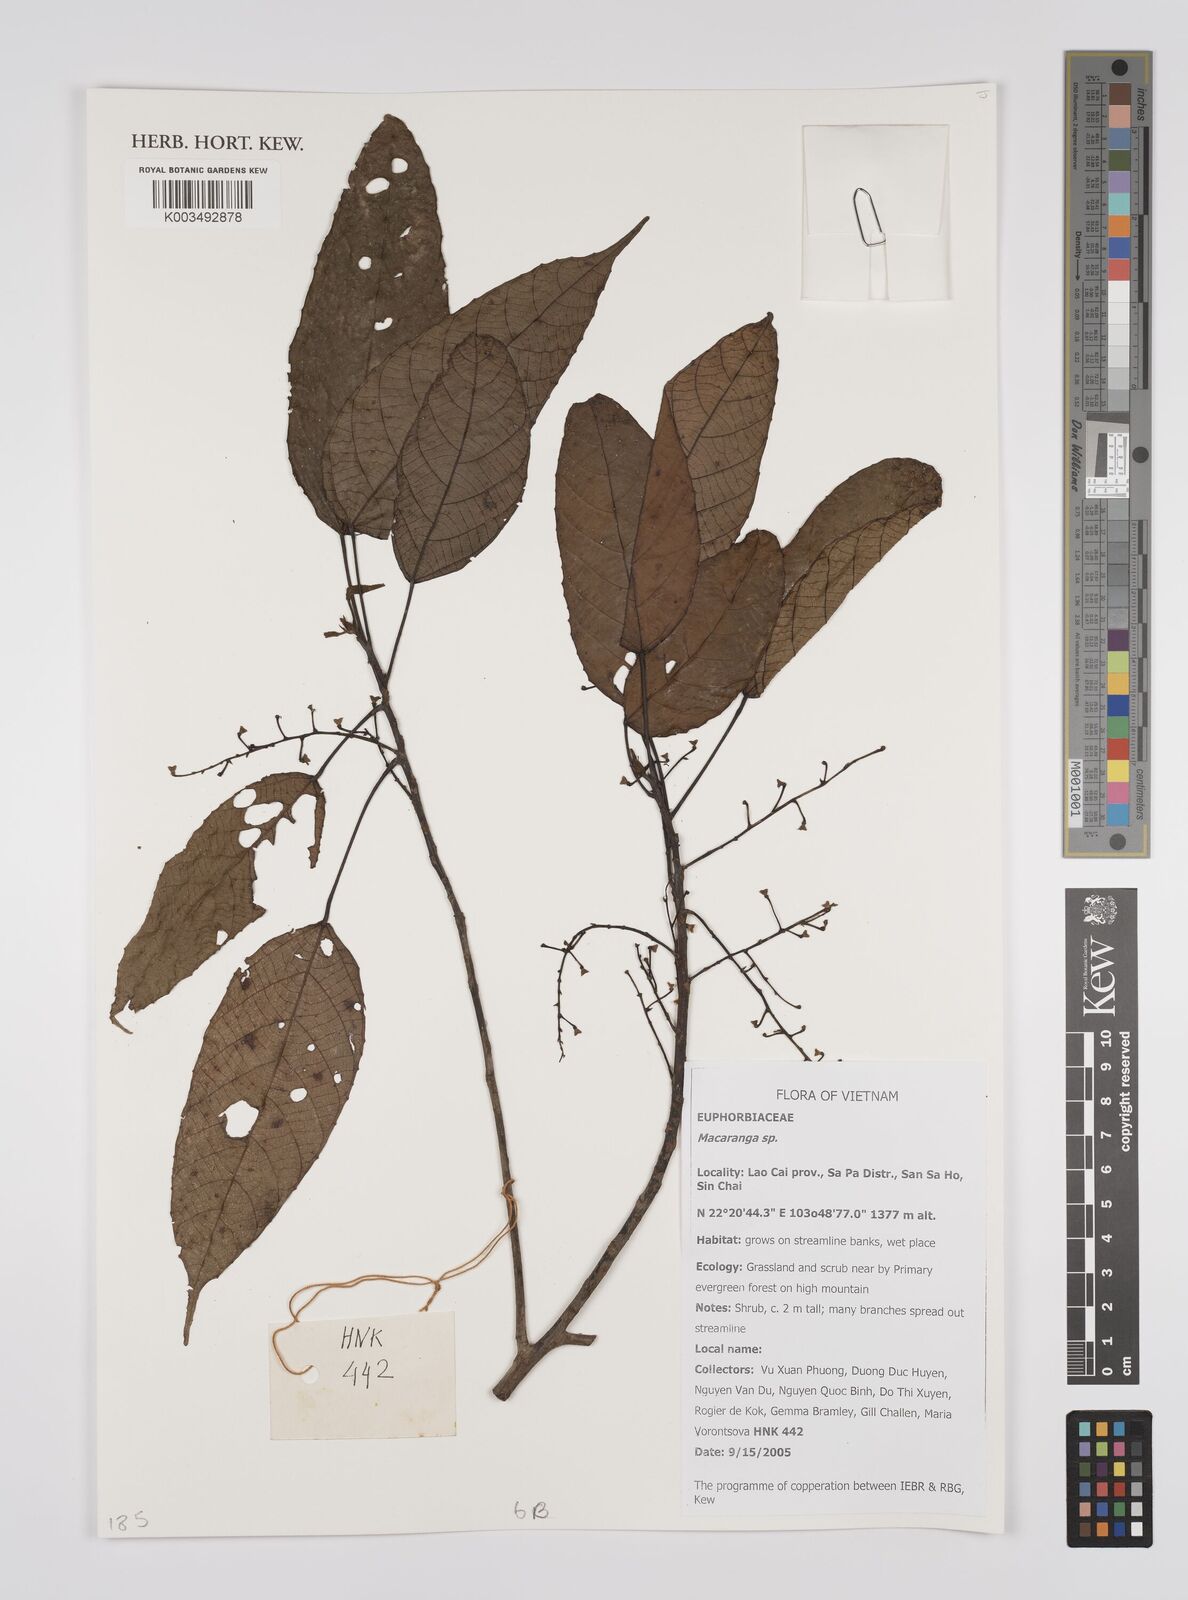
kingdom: Plantae
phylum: Tracheophyta
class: Magnoliopsida
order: Malpighiales
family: Euphorbiaceae
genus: Macaranga
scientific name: Macaranga
